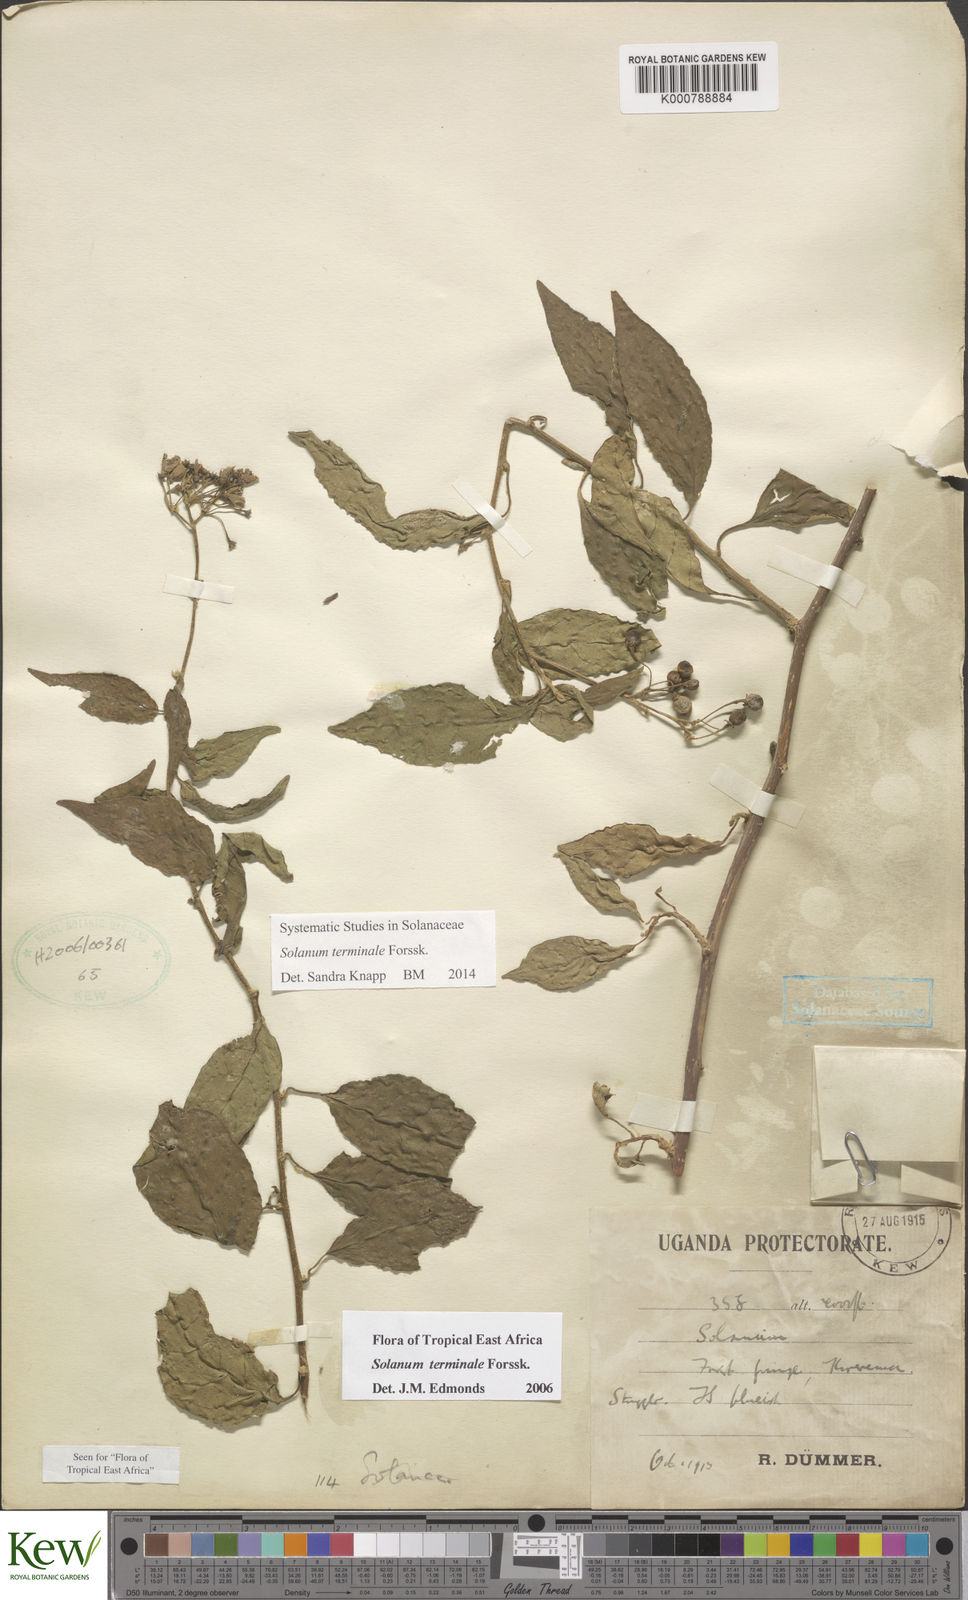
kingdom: Plantae
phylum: Tracheophyta
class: Magnoliopsida
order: Solanales
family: Solanaceae
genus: Solanum
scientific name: Solanum terminale
